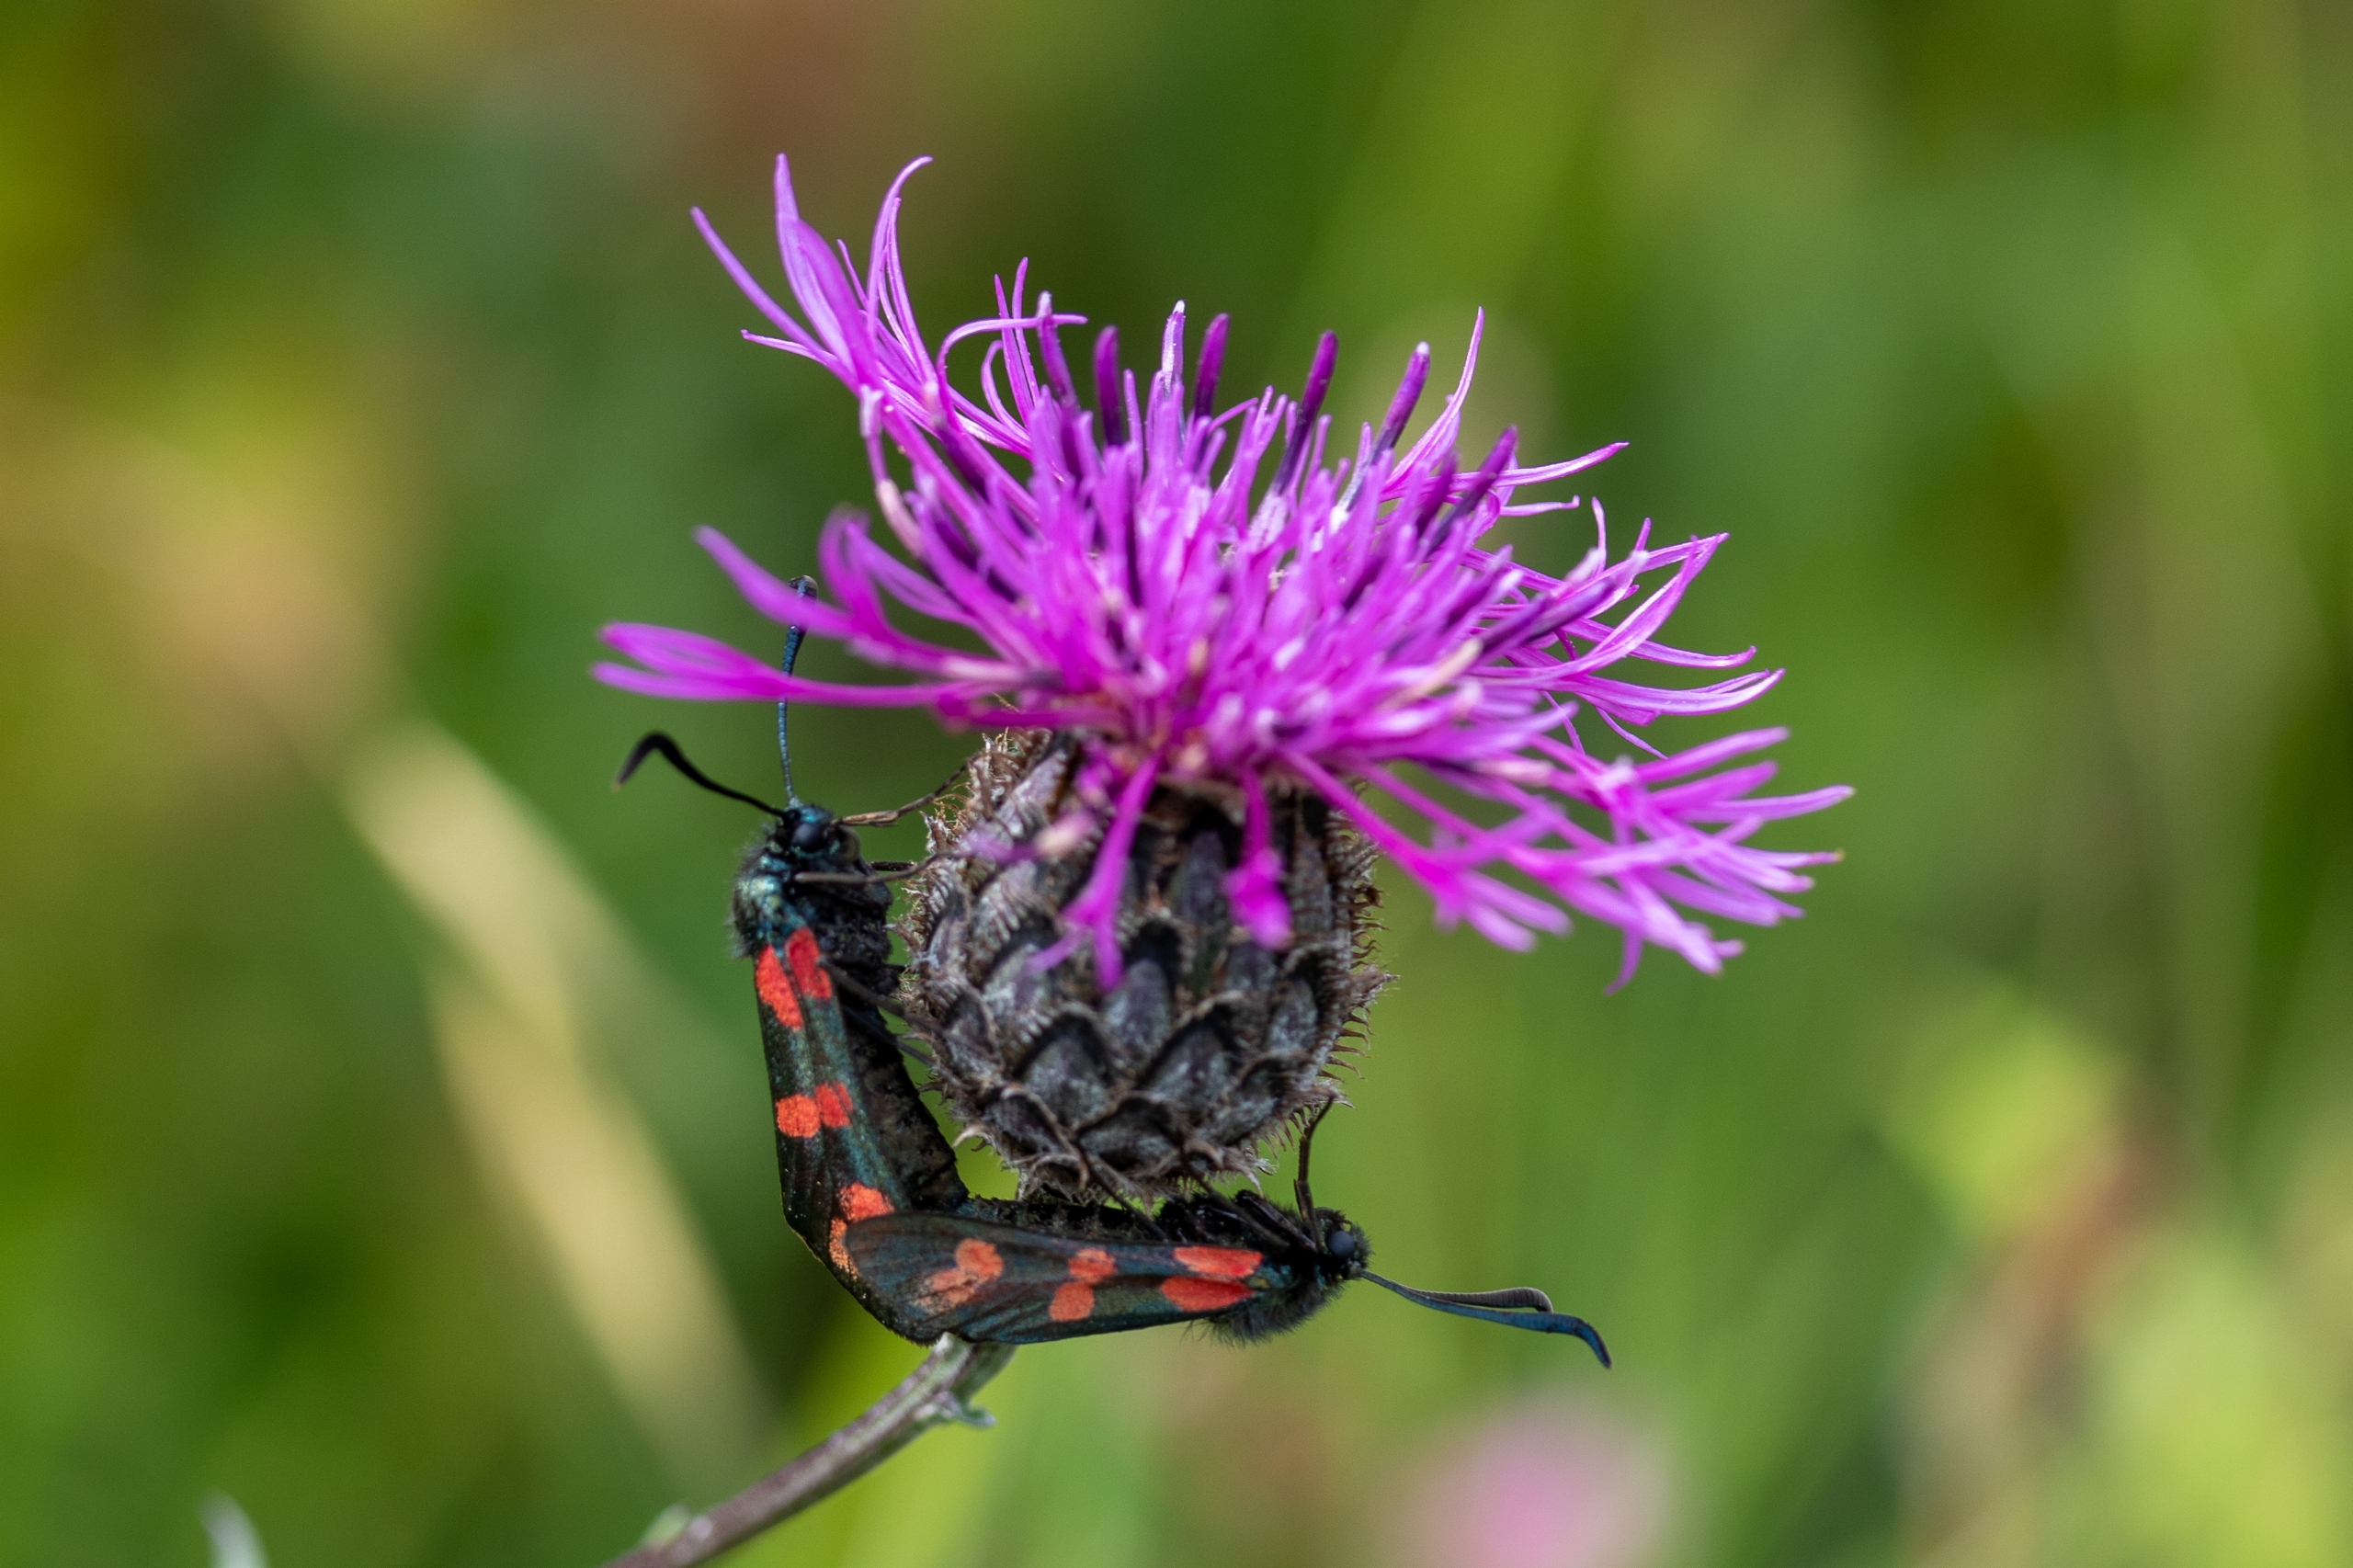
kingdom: Animalia
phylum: Arthropoda
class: Insecta
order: Lepidoptera
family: Zygaenidae
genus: Zygaena
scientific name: Zygaena filipendulae
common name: Seksplettet køllesværmer
